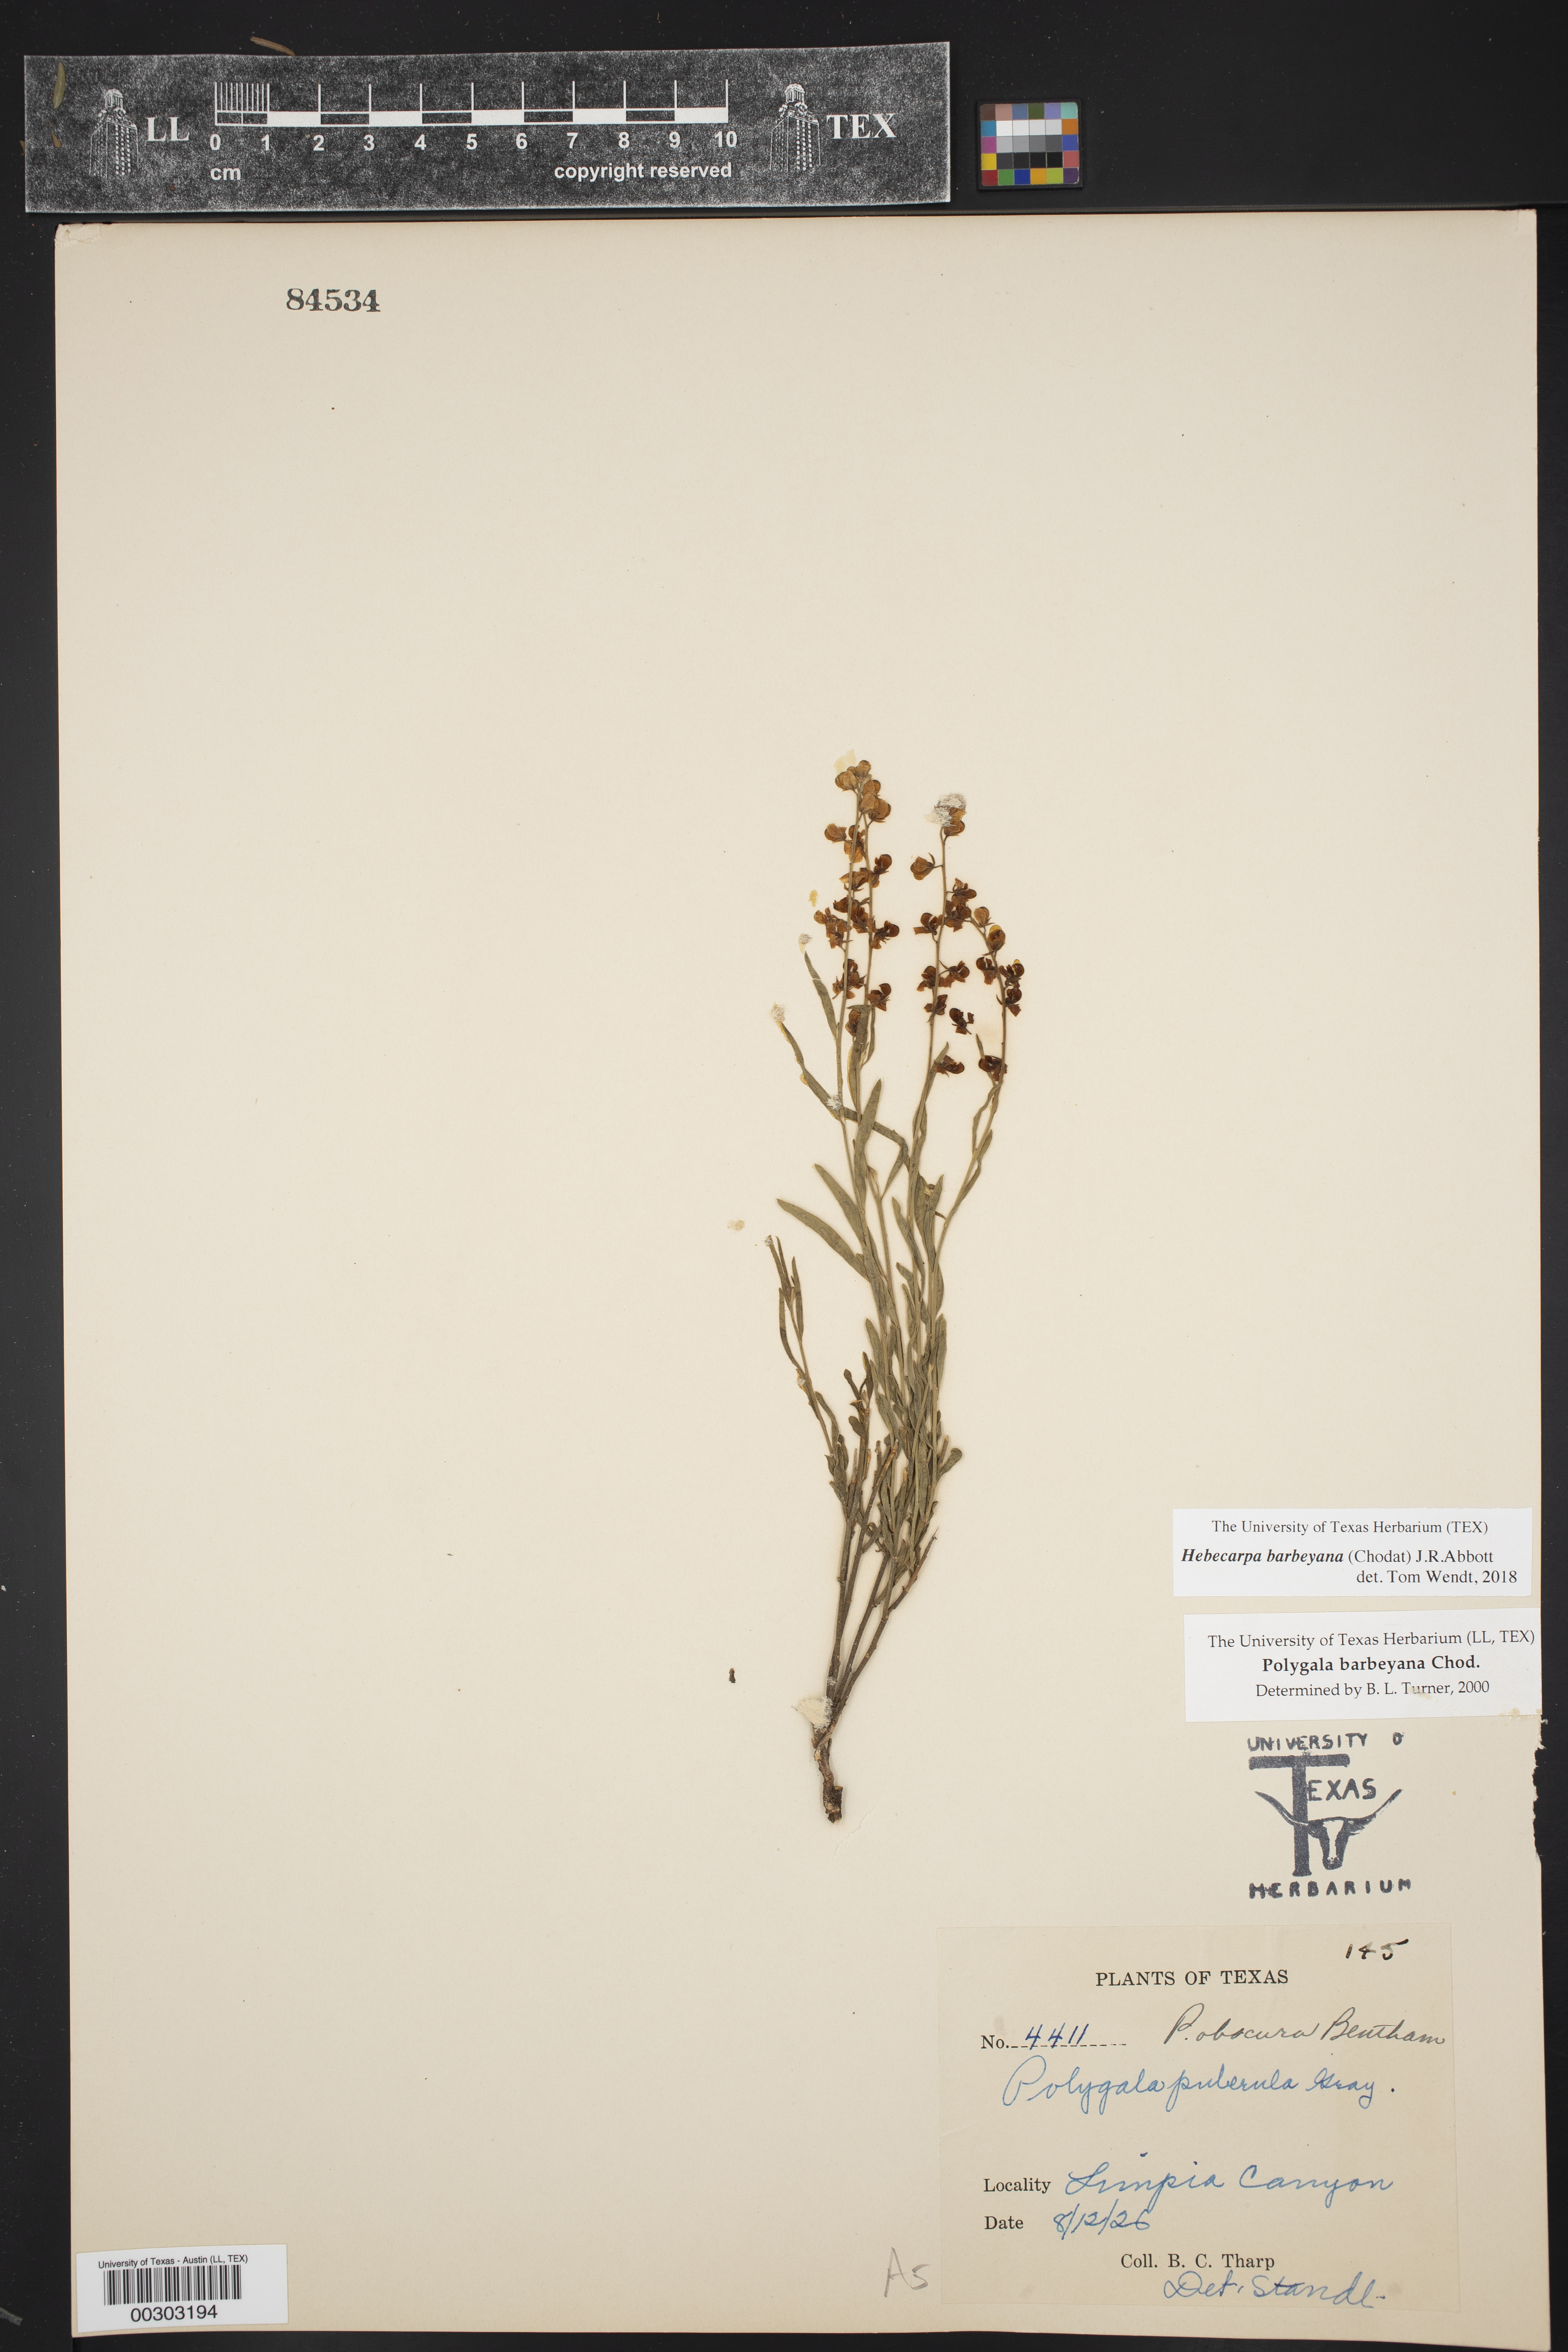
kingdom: Plantae
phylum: Tracheophyta
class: Magnoliopsida
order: Fabales
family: Polygalaceae
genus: Hebecarpa
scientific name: Hebecarpa barbeyana
